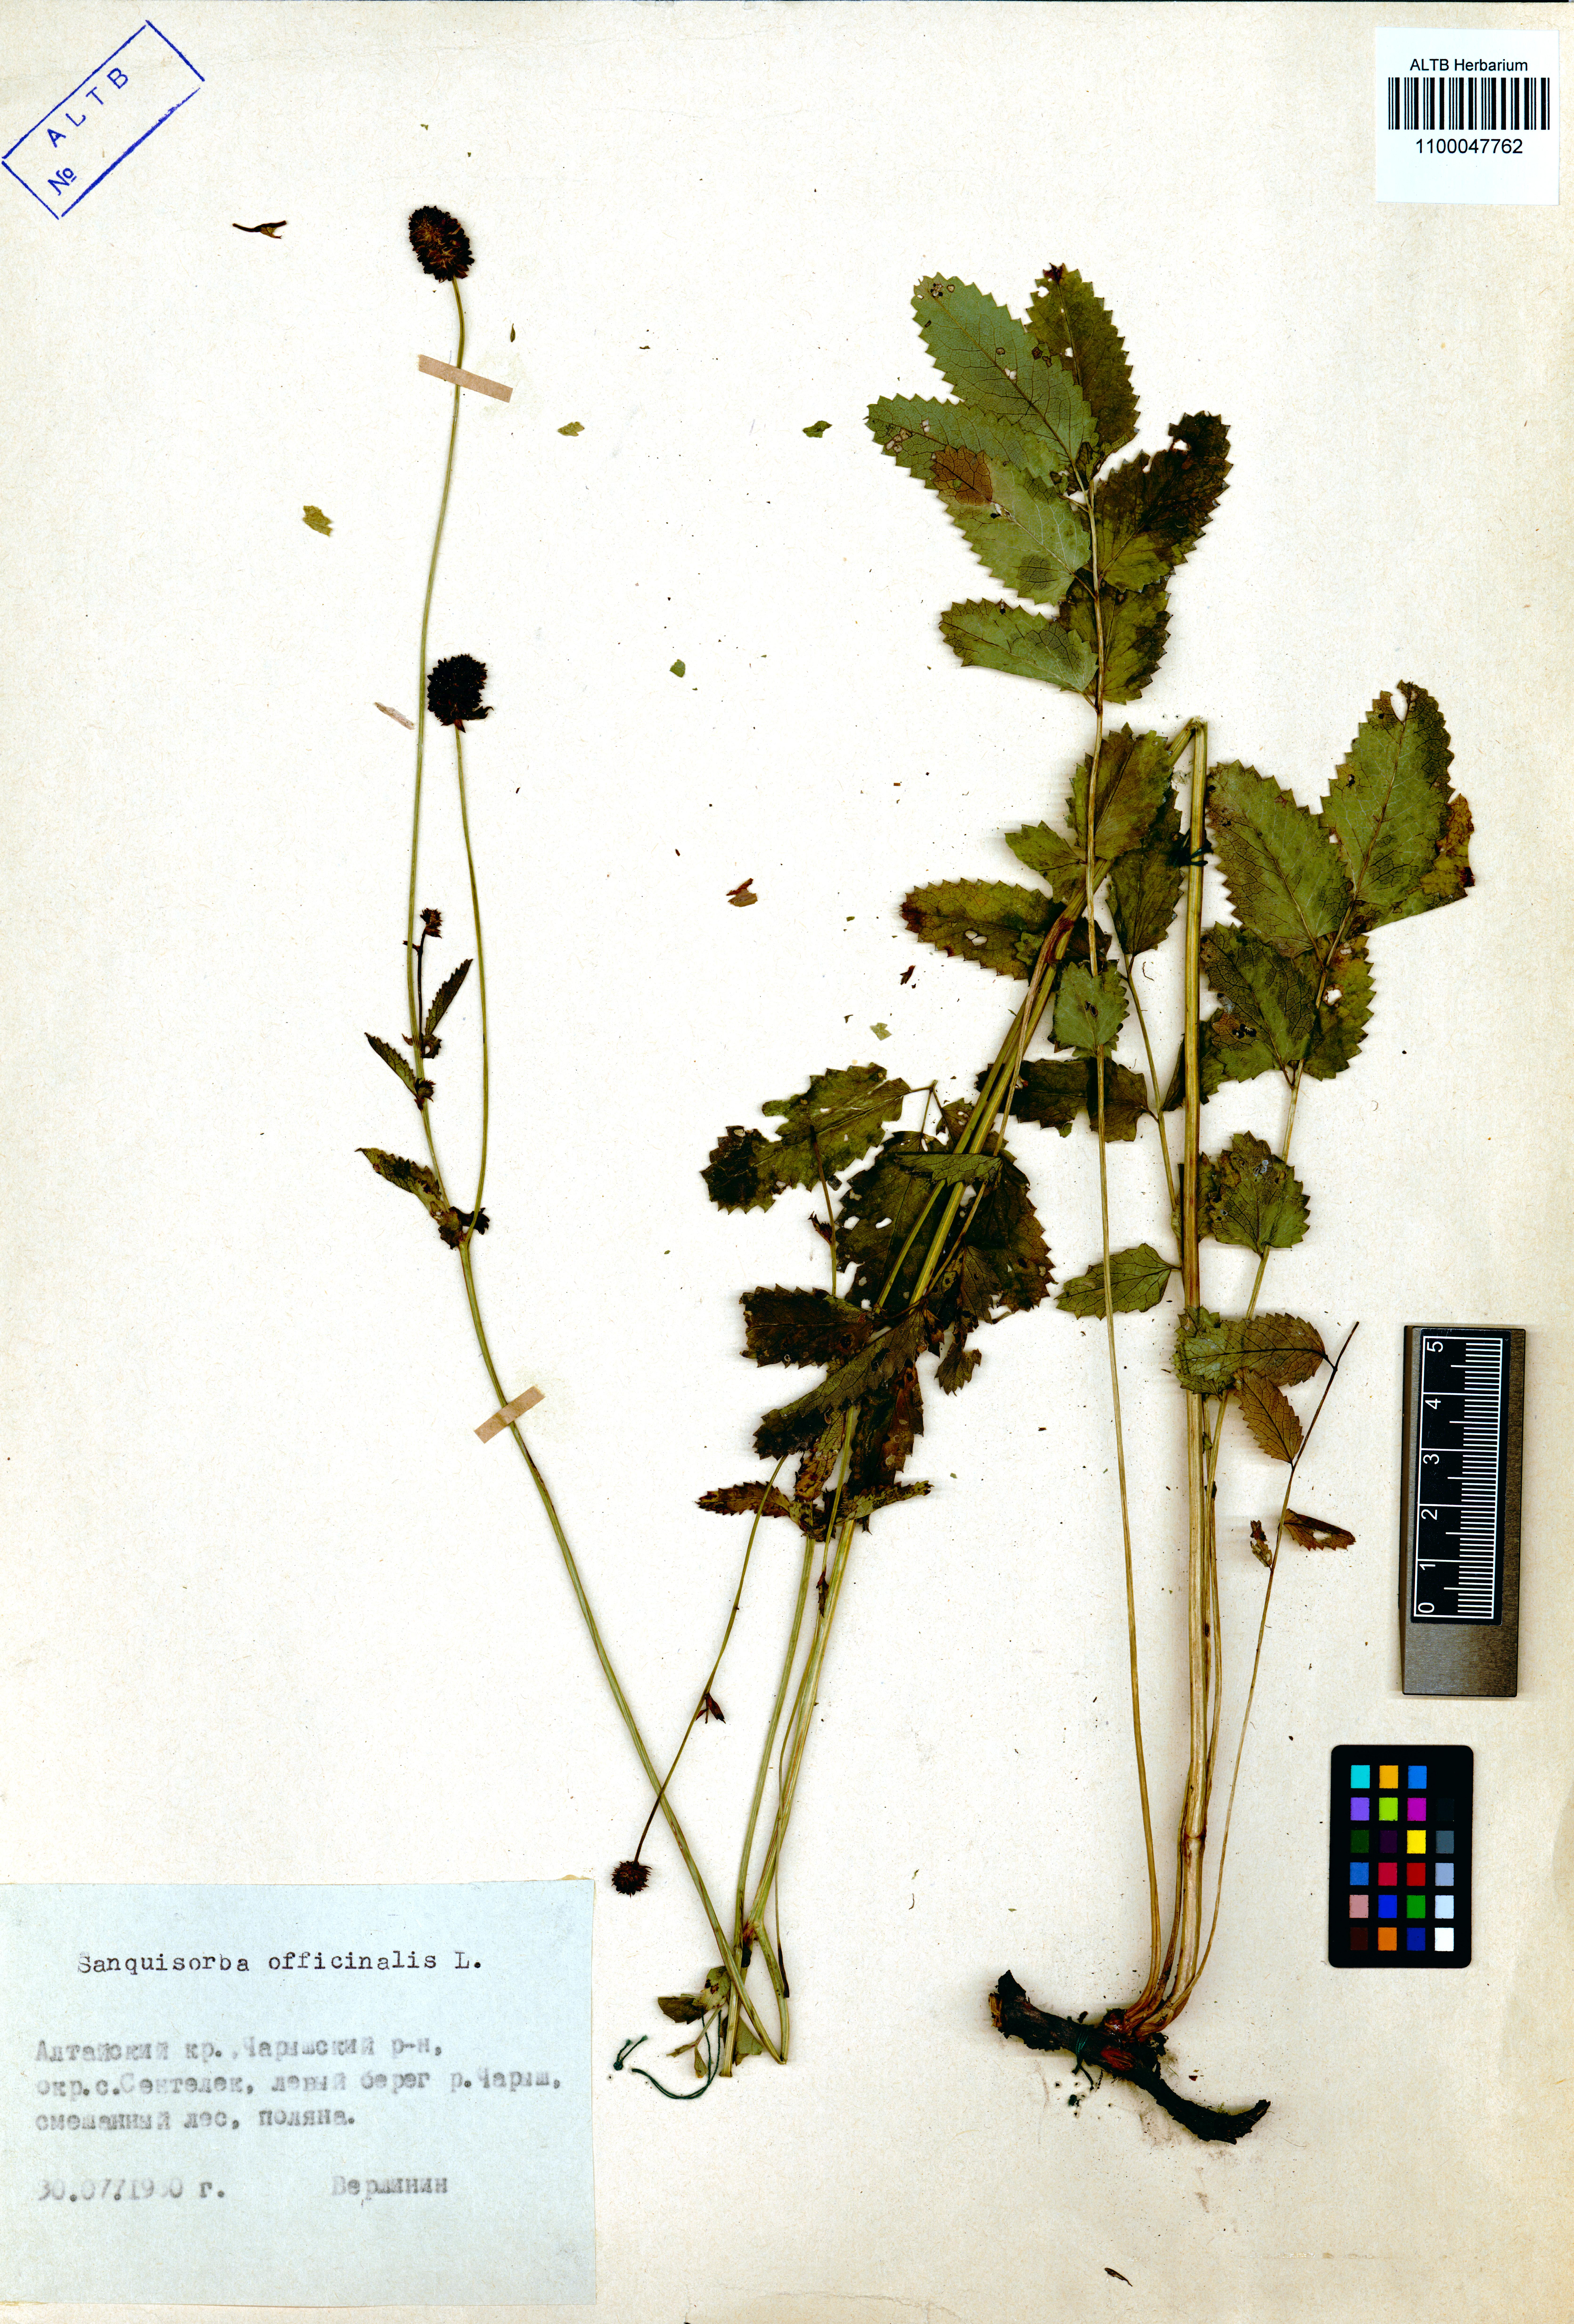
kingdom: Plantae
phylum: Tracheophyta
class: Magnoliopsida
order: Rosales
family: Rosaceae
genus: Sanguisorba
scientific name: Sanguisorba officinalis
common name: Great burnet
